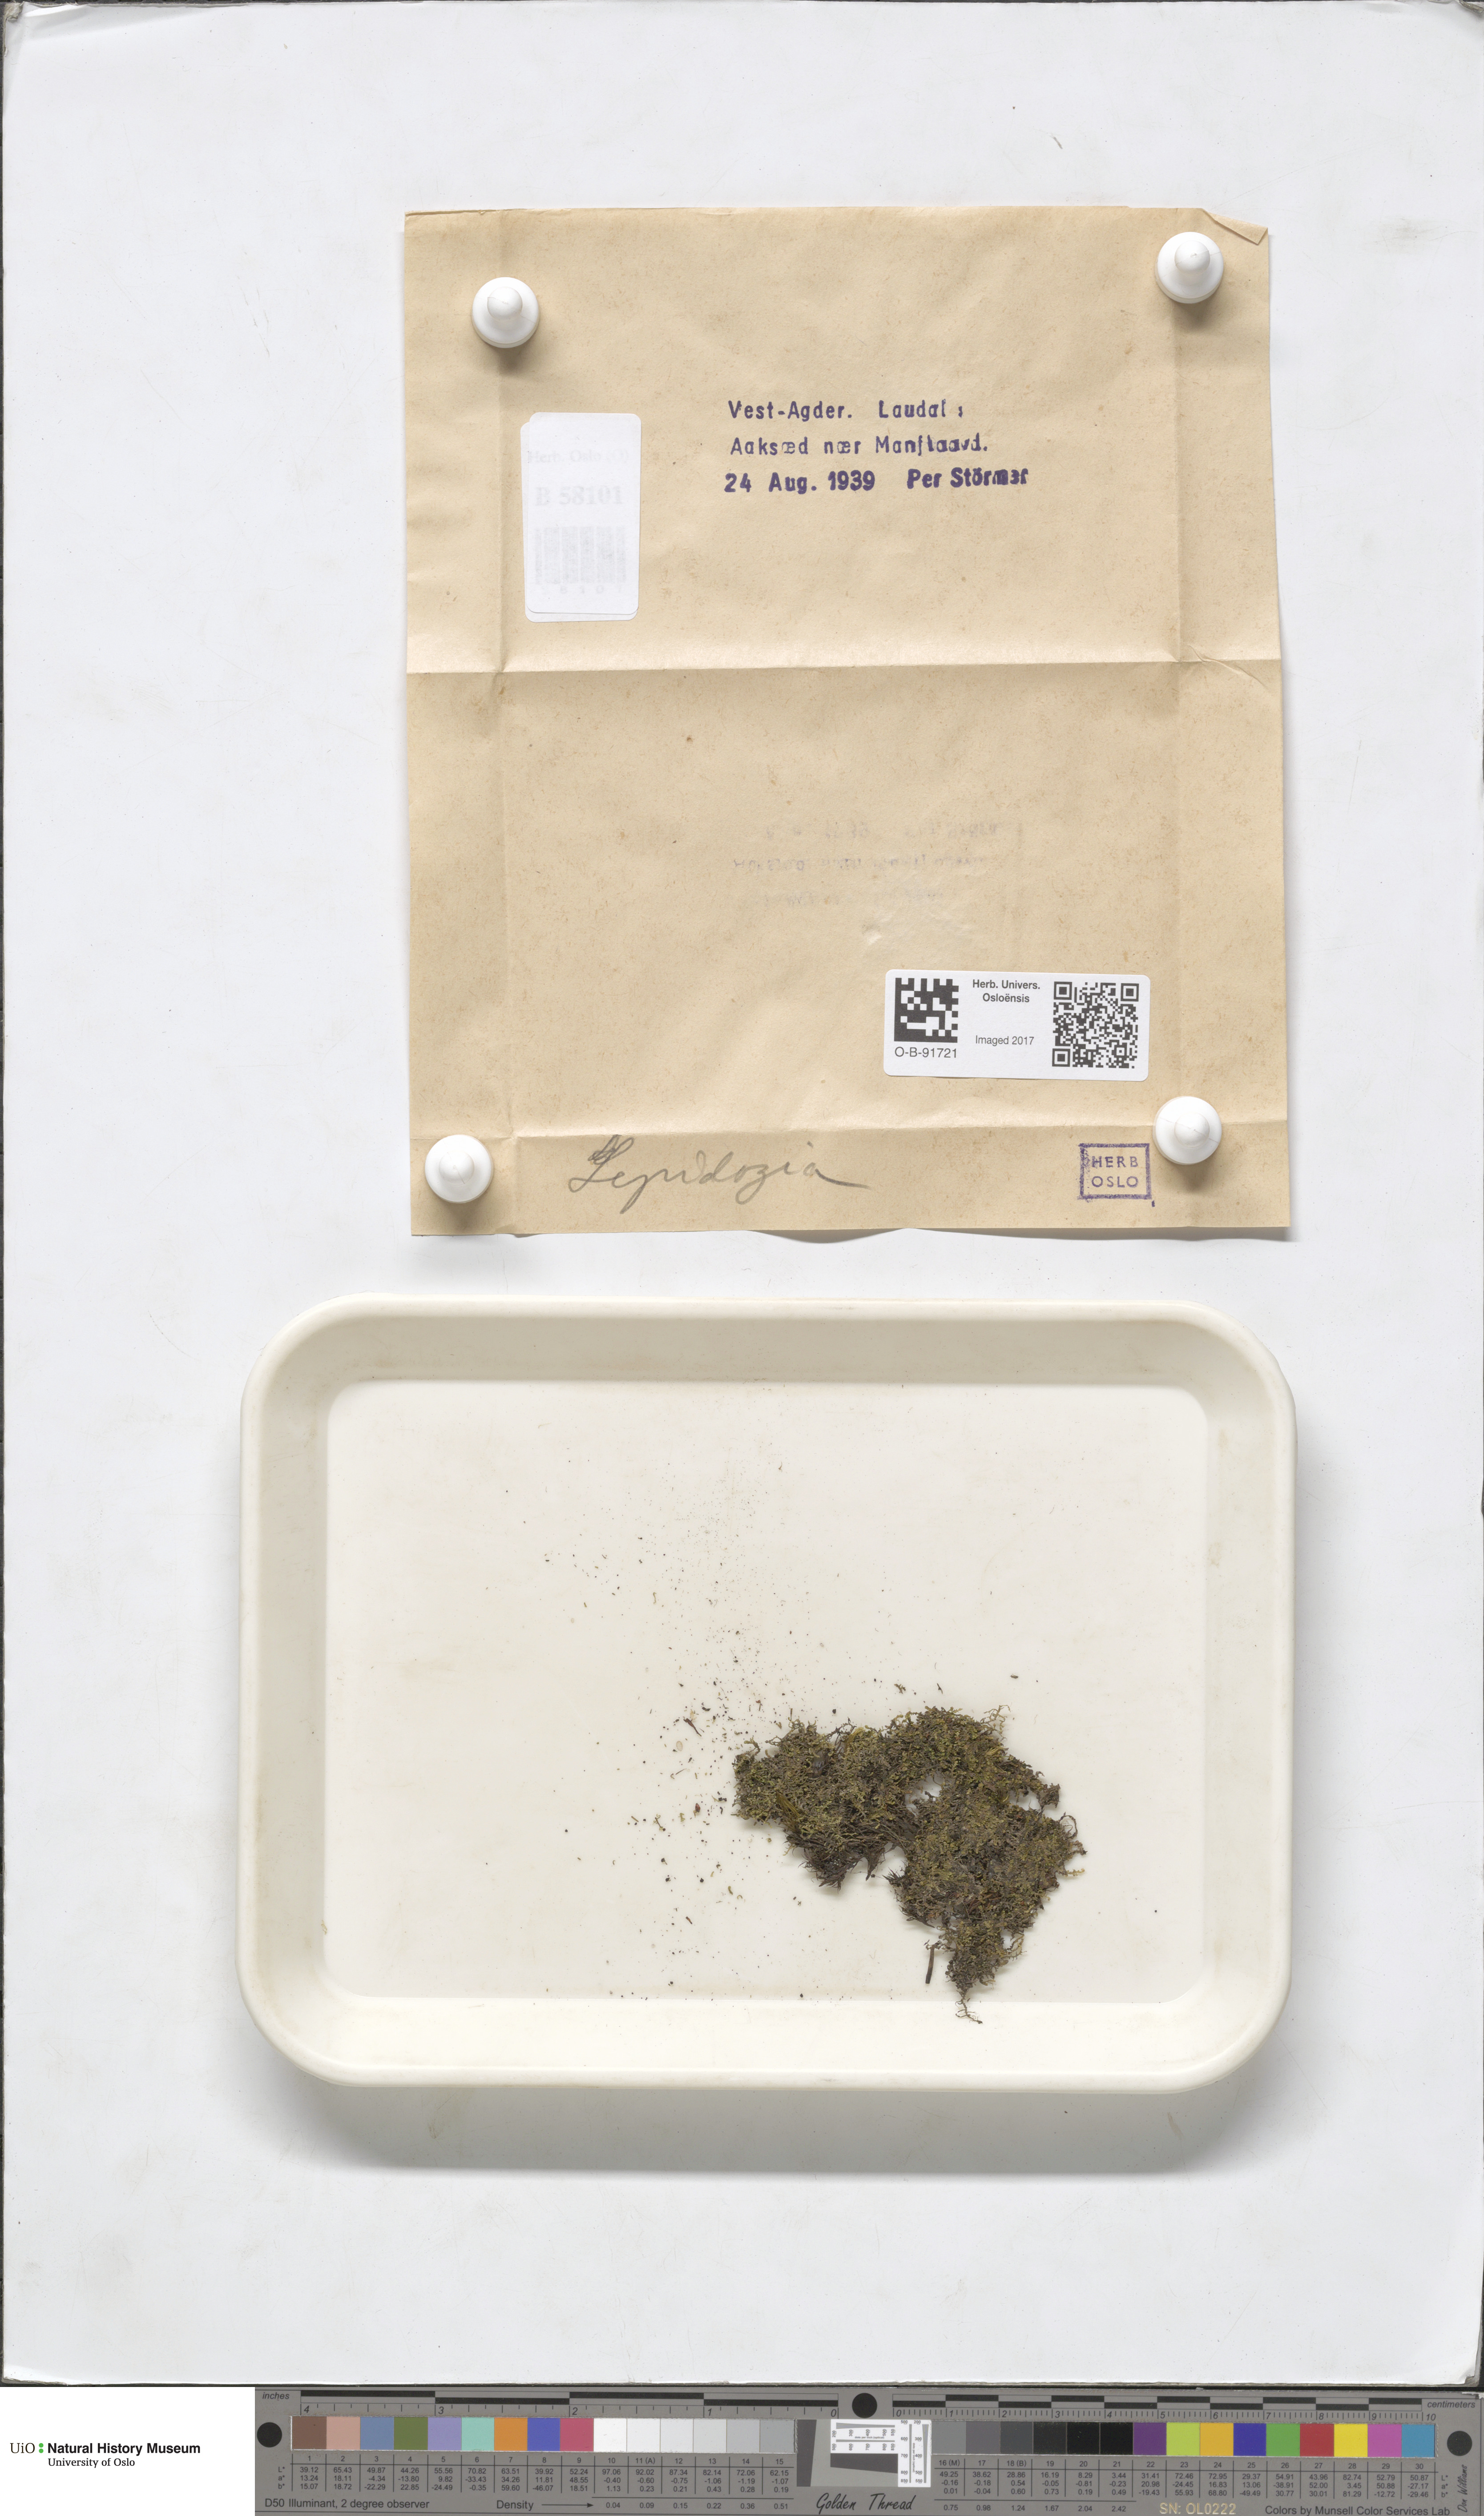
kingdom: Plantae
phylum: Marchantiophyta
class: Jungermanniopsida
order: Jungermanniales
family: Lepidoziaceae
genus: Lepidozia
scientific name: Lepidozia
